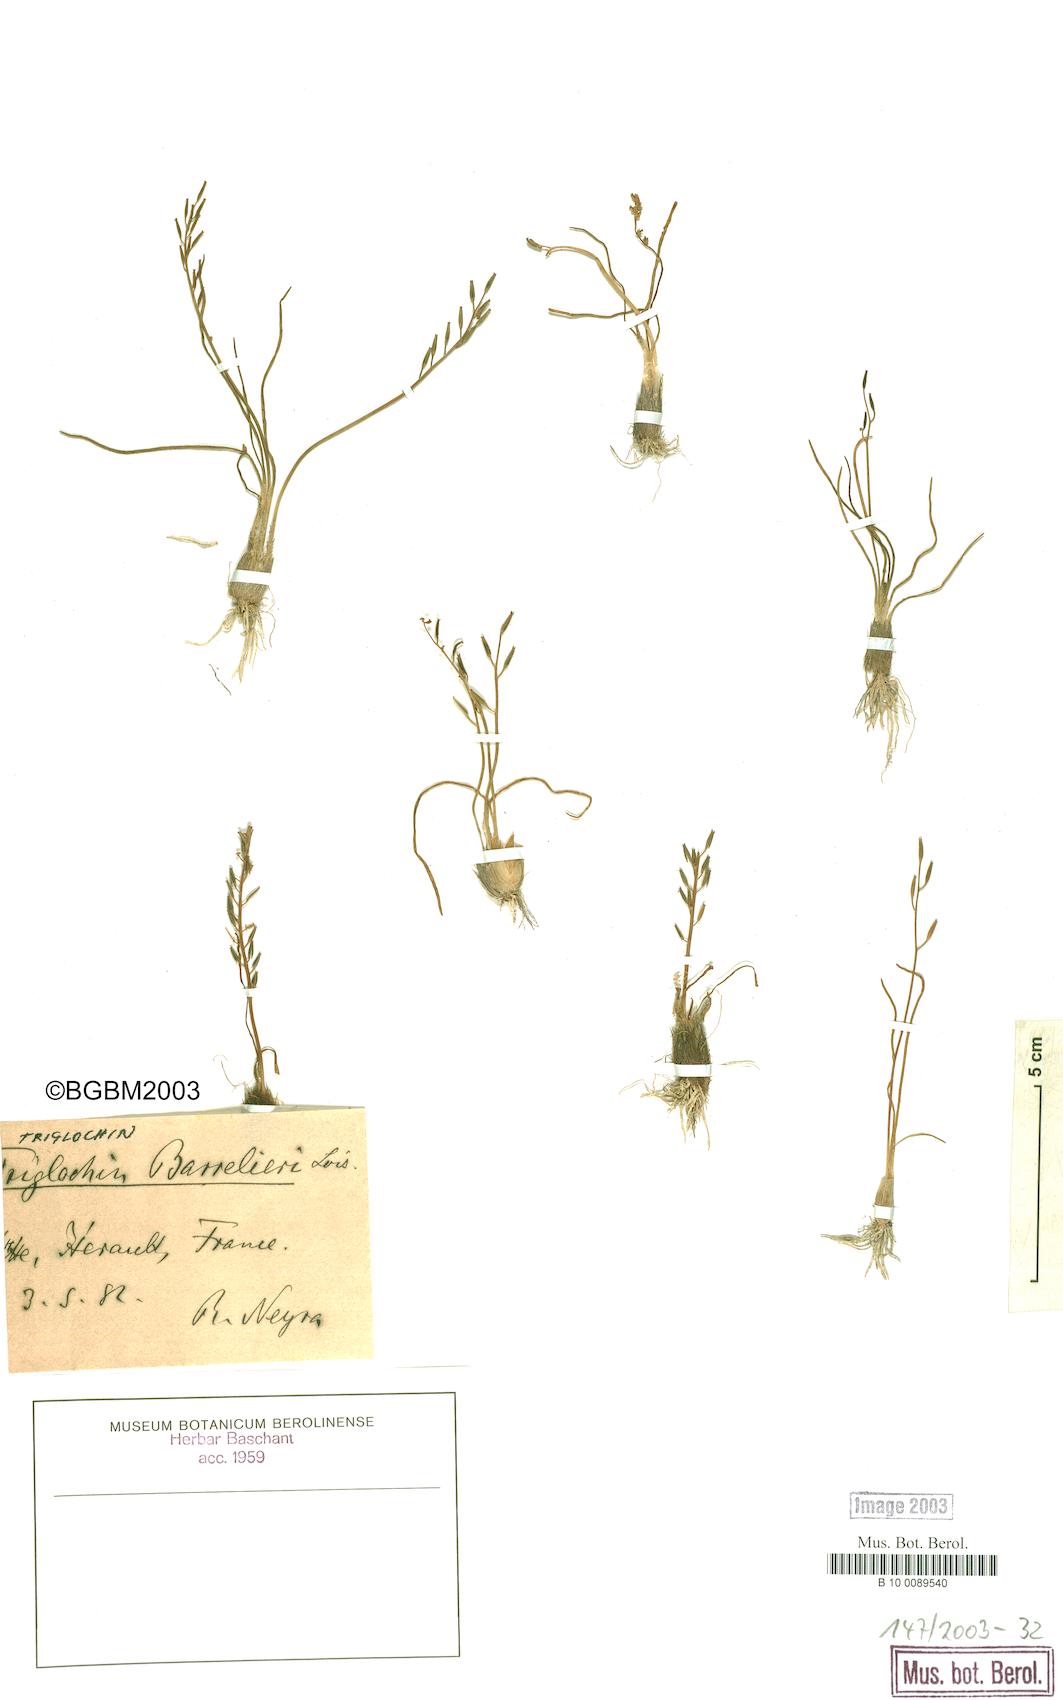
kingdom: Plantae
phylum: Tracheophyta
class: Liliopsida
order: Alismatales
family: Juncaginaceae
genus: Triglochin
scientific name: Triglochin bulbosa
